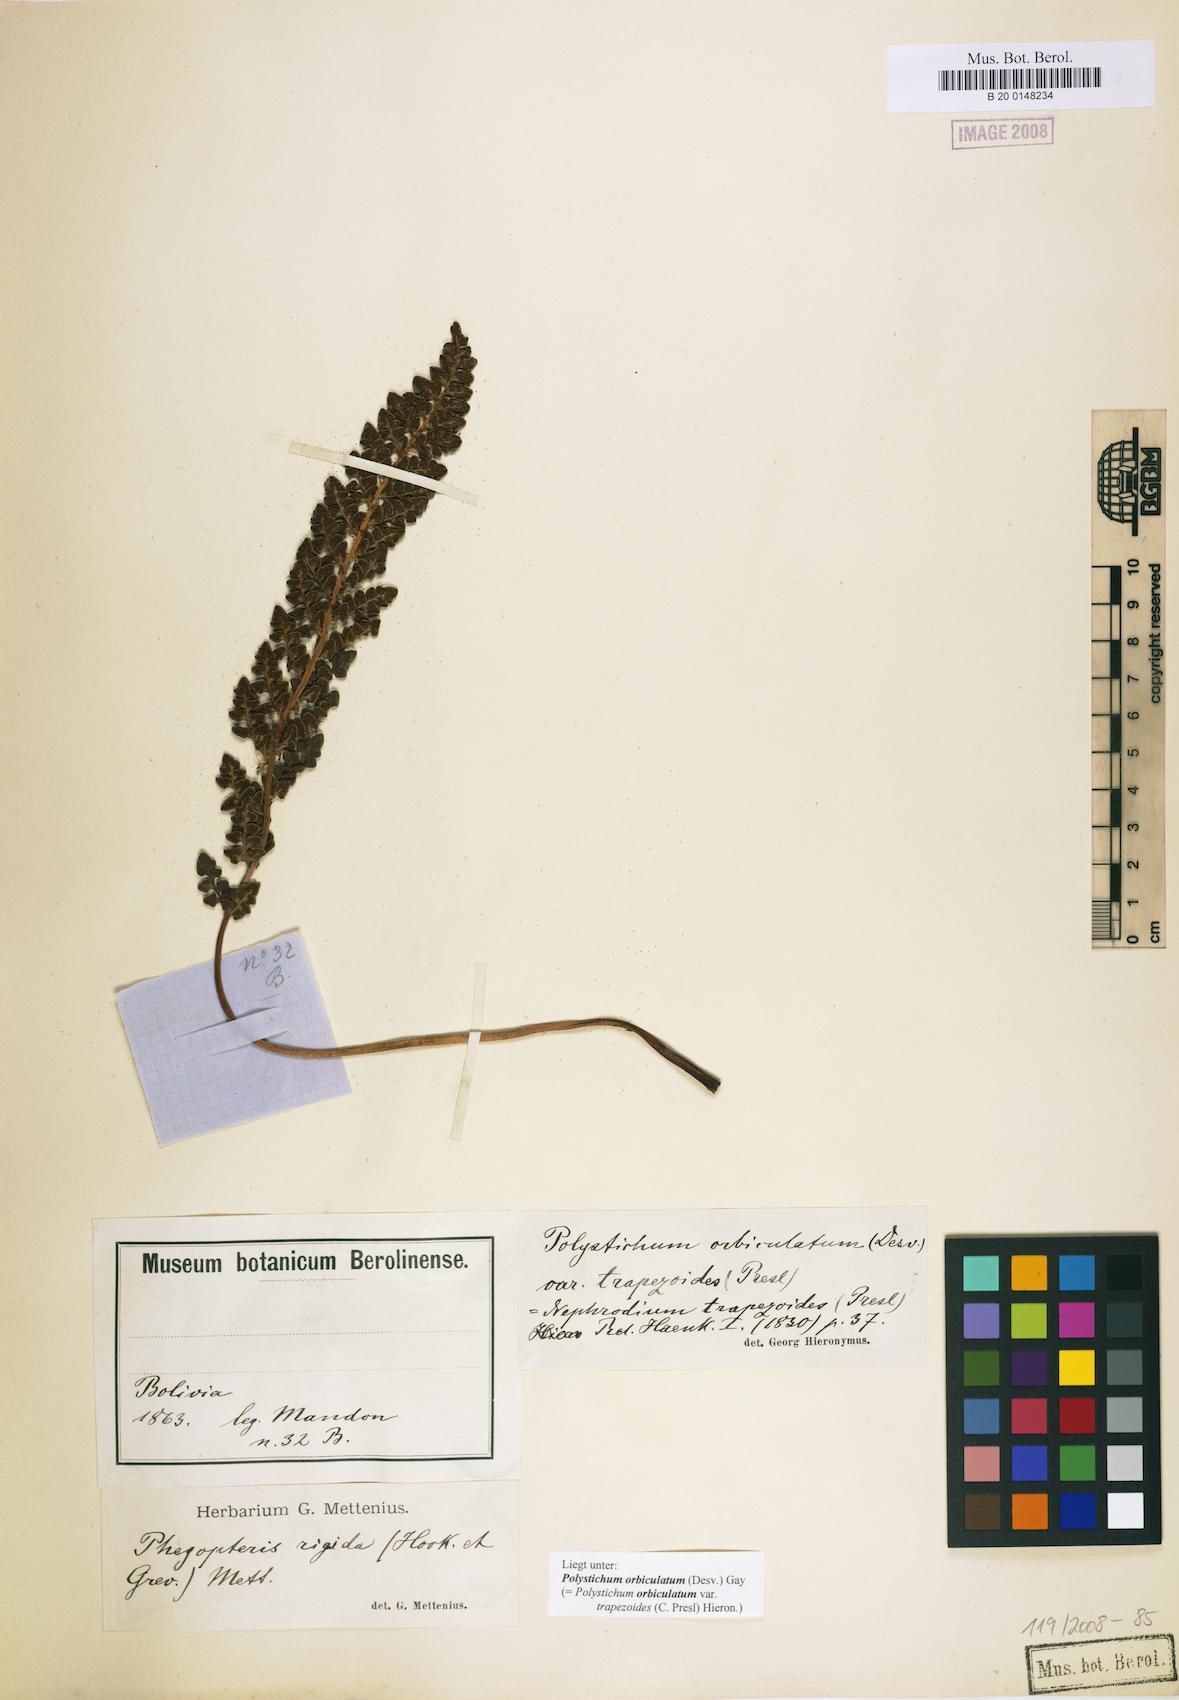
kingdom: Plantae
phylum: Tracheophyta
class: Polypodiopsida
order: Polypodiales
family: Dryopteridaceae
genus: Polystichum
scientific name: Polystichum orbiculatum
